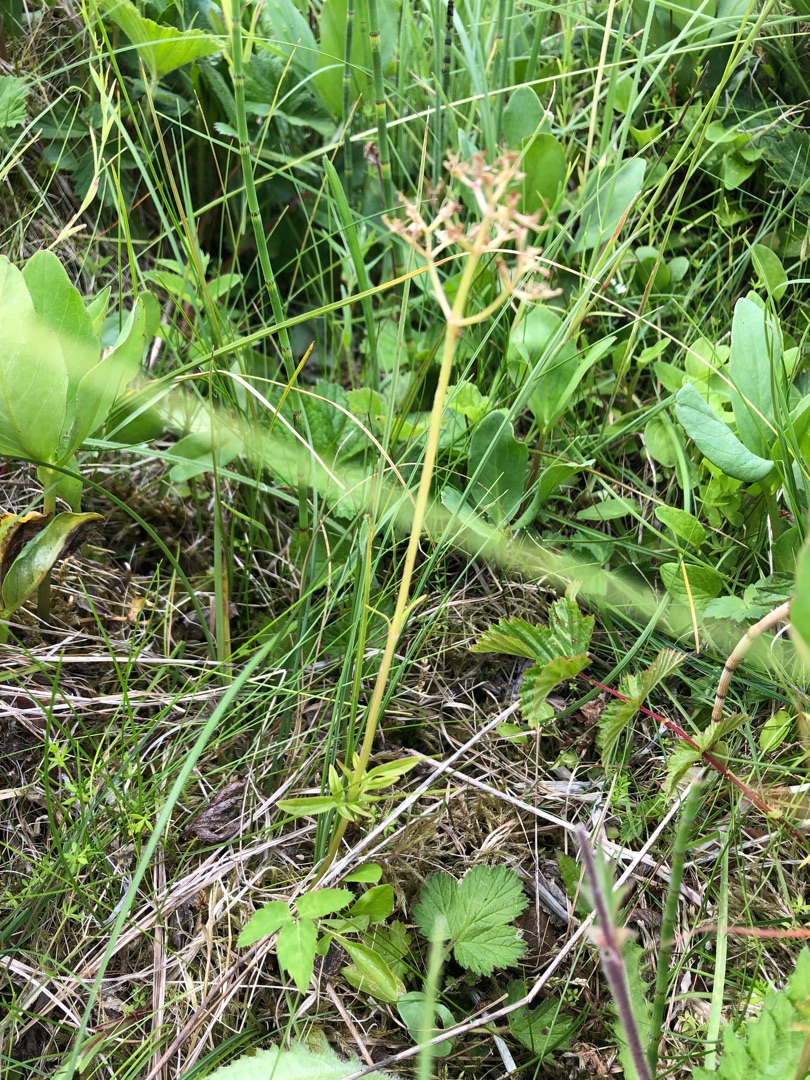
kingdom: Plantae
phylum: Tracheophyta
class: Magnoliopsida
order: Dipsacales
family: Caprifoliaceae
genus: Valeriana
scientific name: Valeriana dioica
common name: Tvebo baldrian
